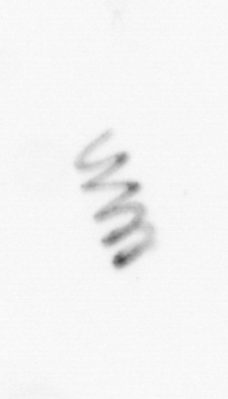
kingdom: Chromista
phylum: Ochrophyta
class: Bacillariophyceae
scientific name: Bacillariophyceae
